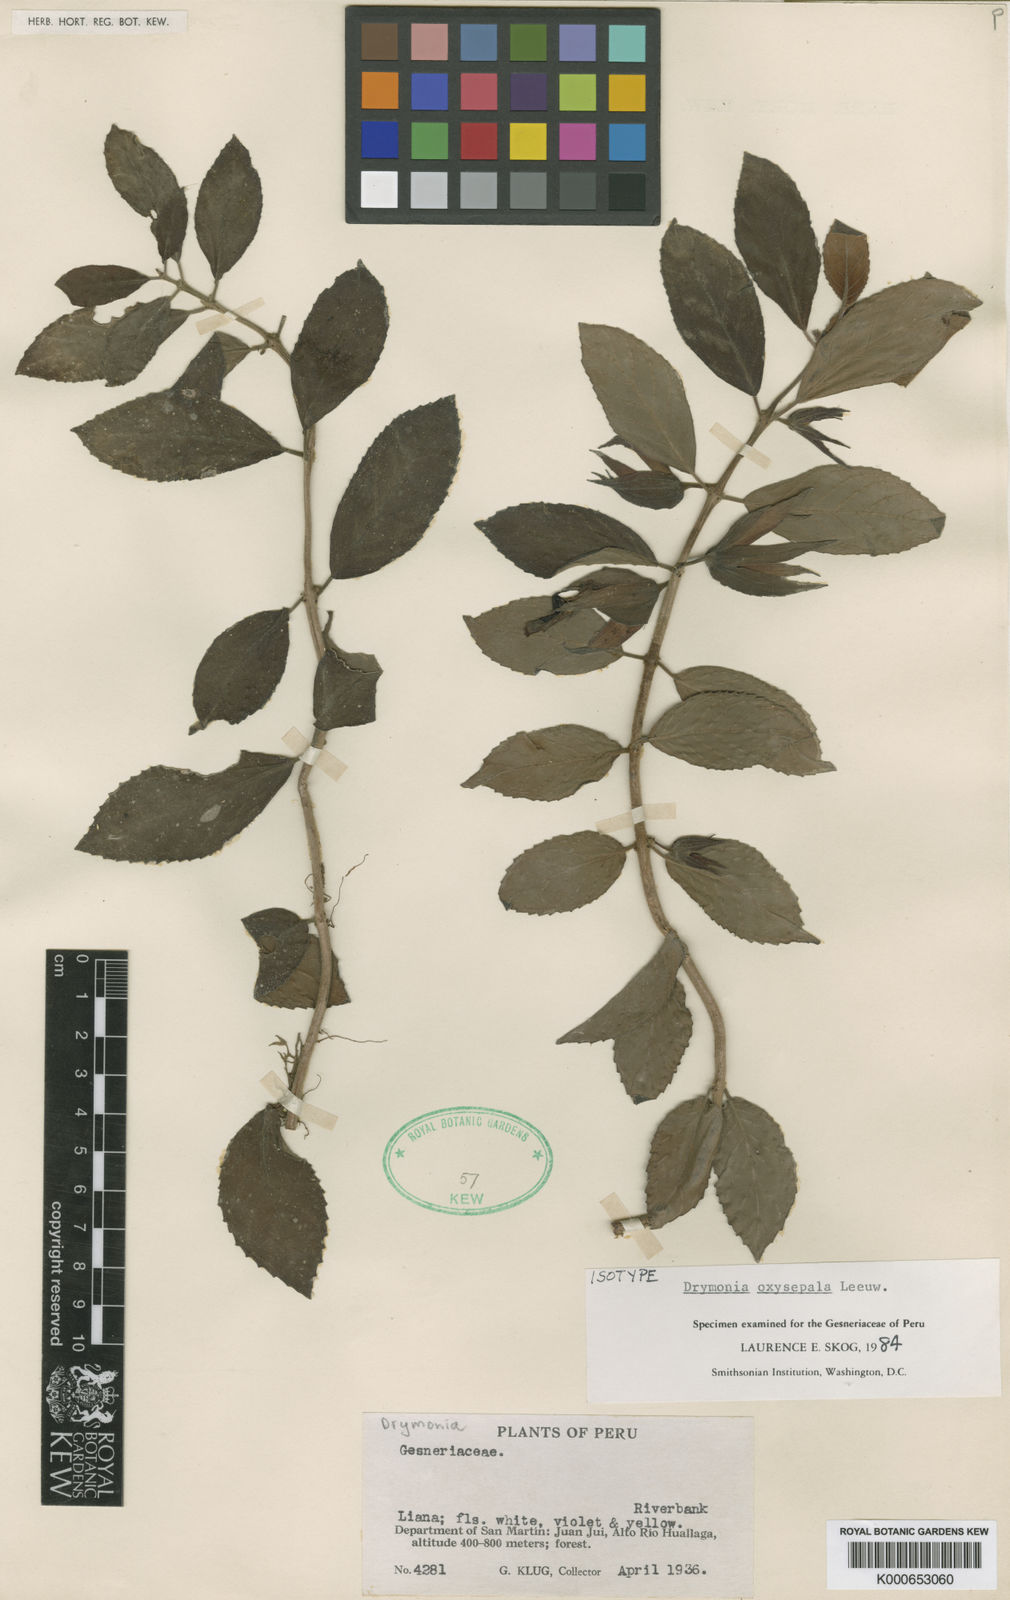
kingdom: Plantae
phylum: Tracheophyta
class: Magnoliopsida
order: Lamiales
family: Gesneriaceae
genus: Drymonia
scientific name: Drymonia oxysepala
